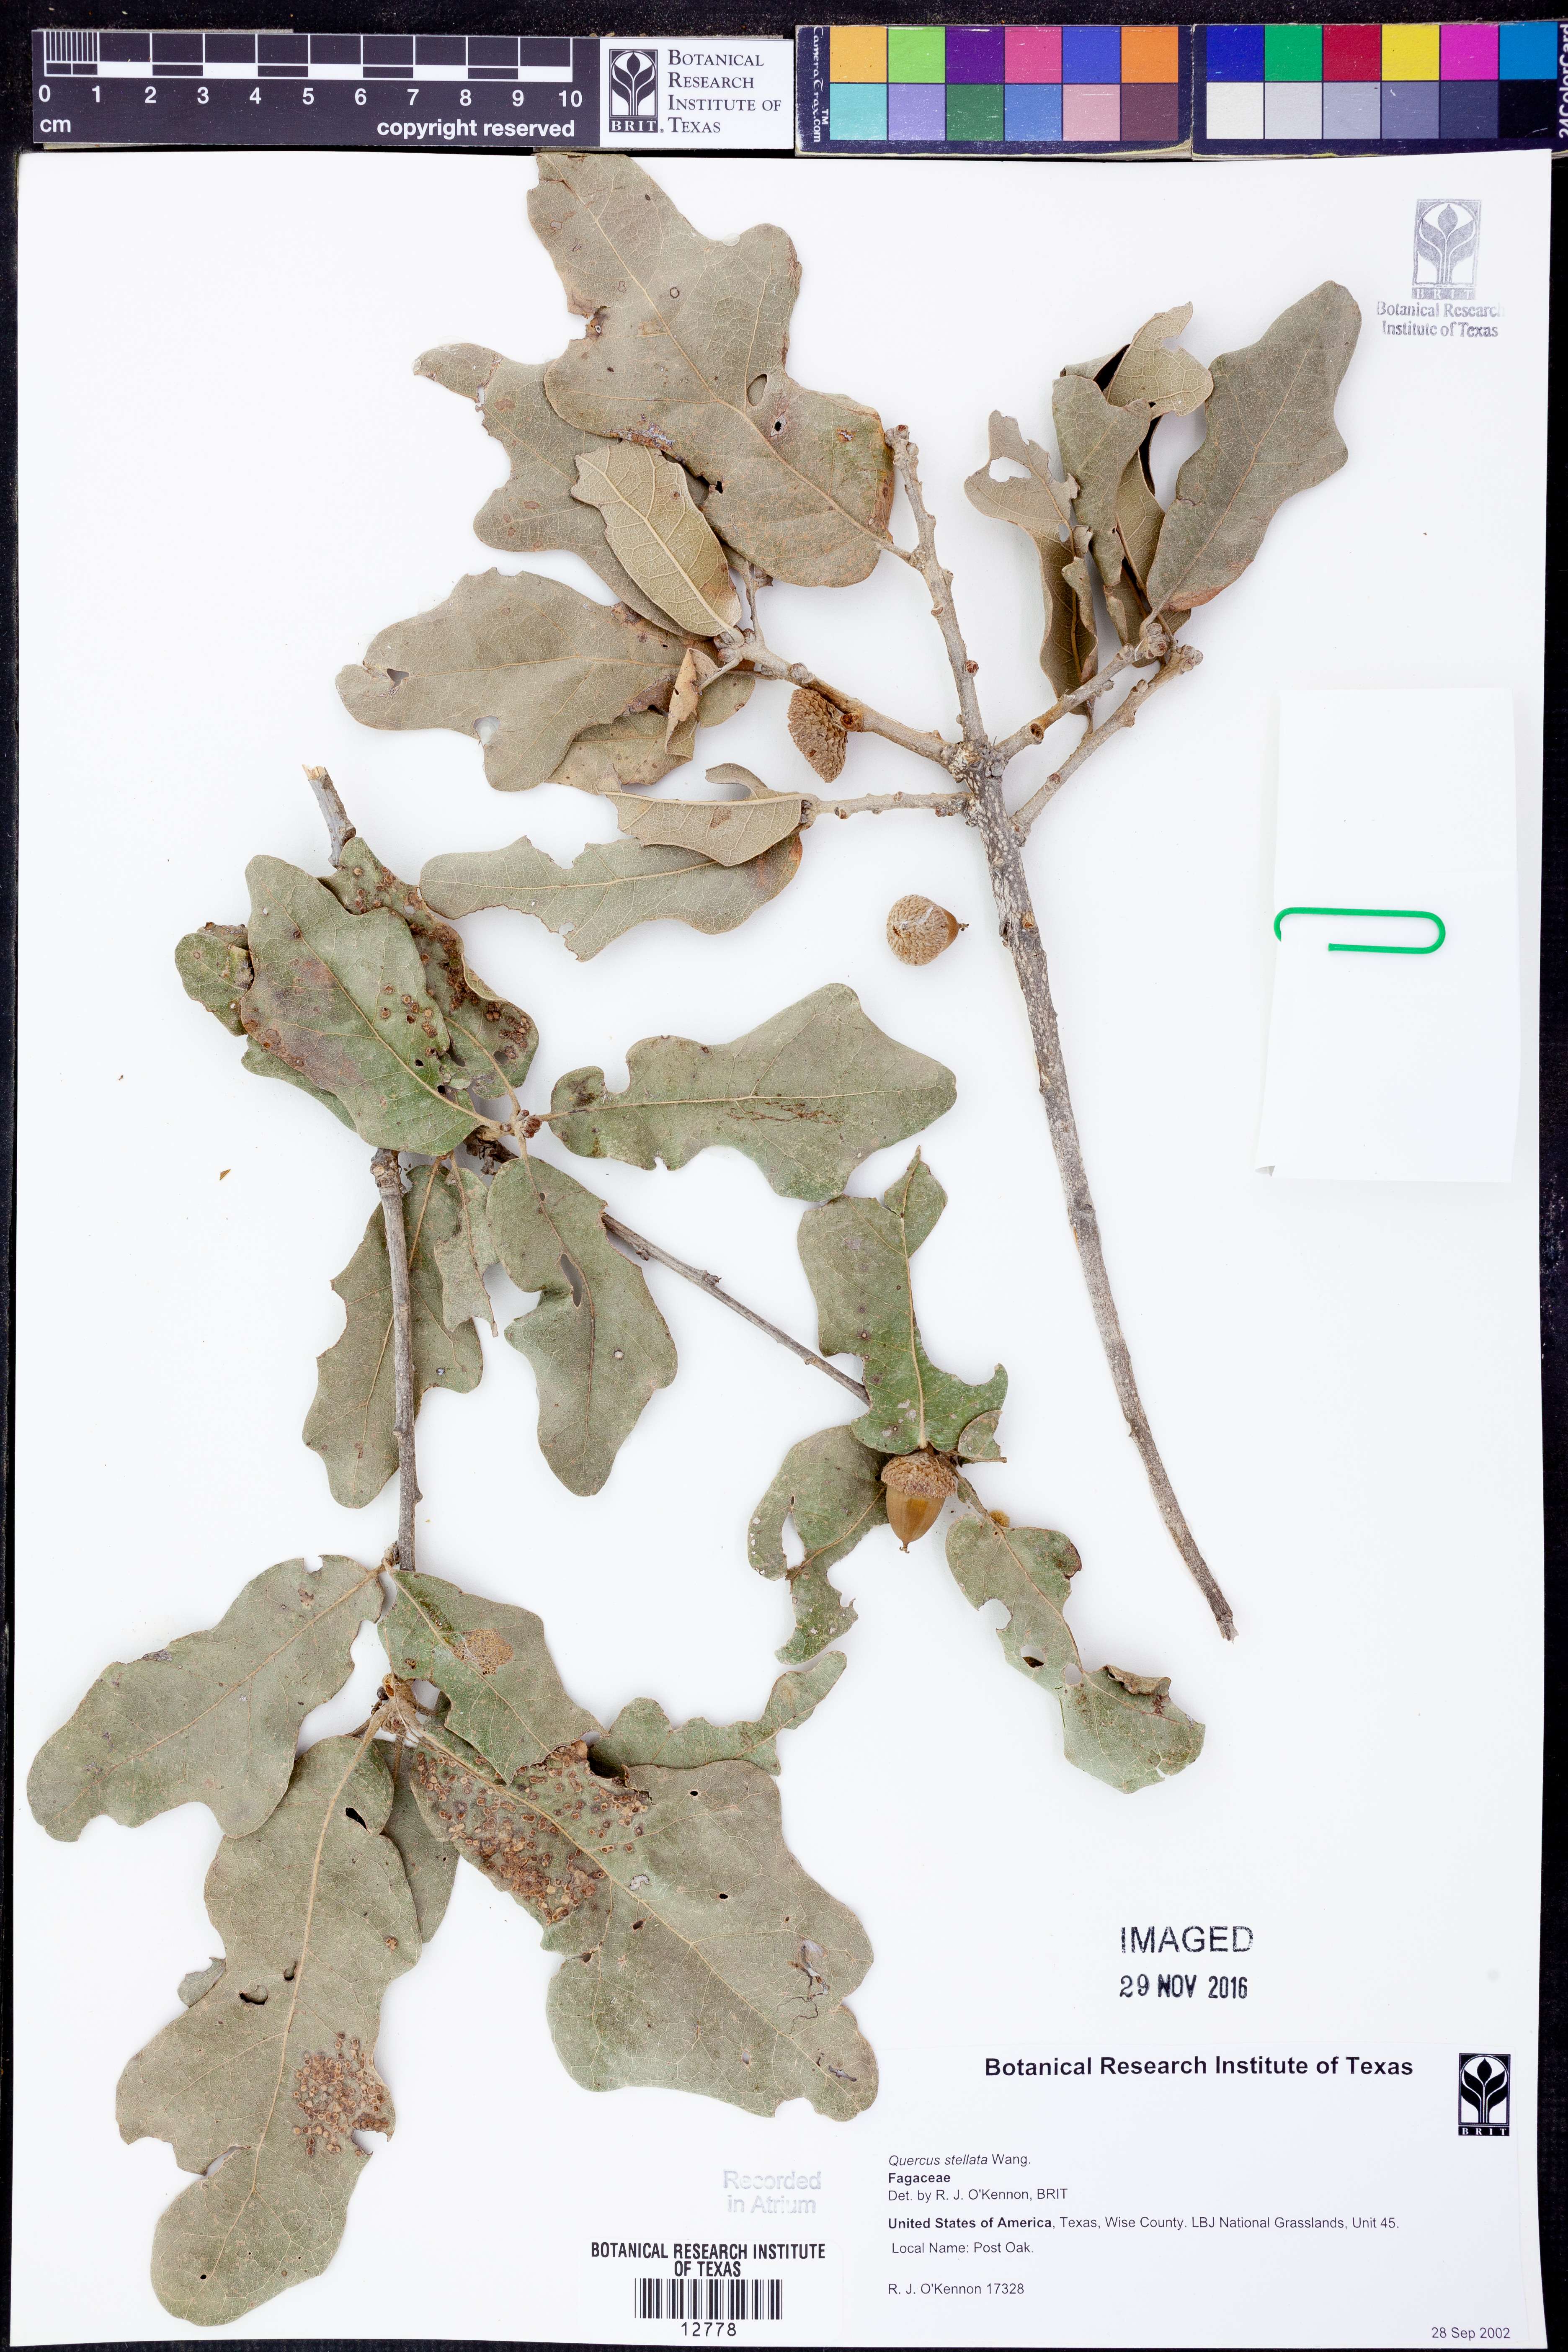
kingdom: Plantae
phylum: Tracheophyta
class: Magnoliopsida
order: Fagales
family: Fagaceae
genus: Quercus
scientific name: Quercus stellata
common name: Post oak
